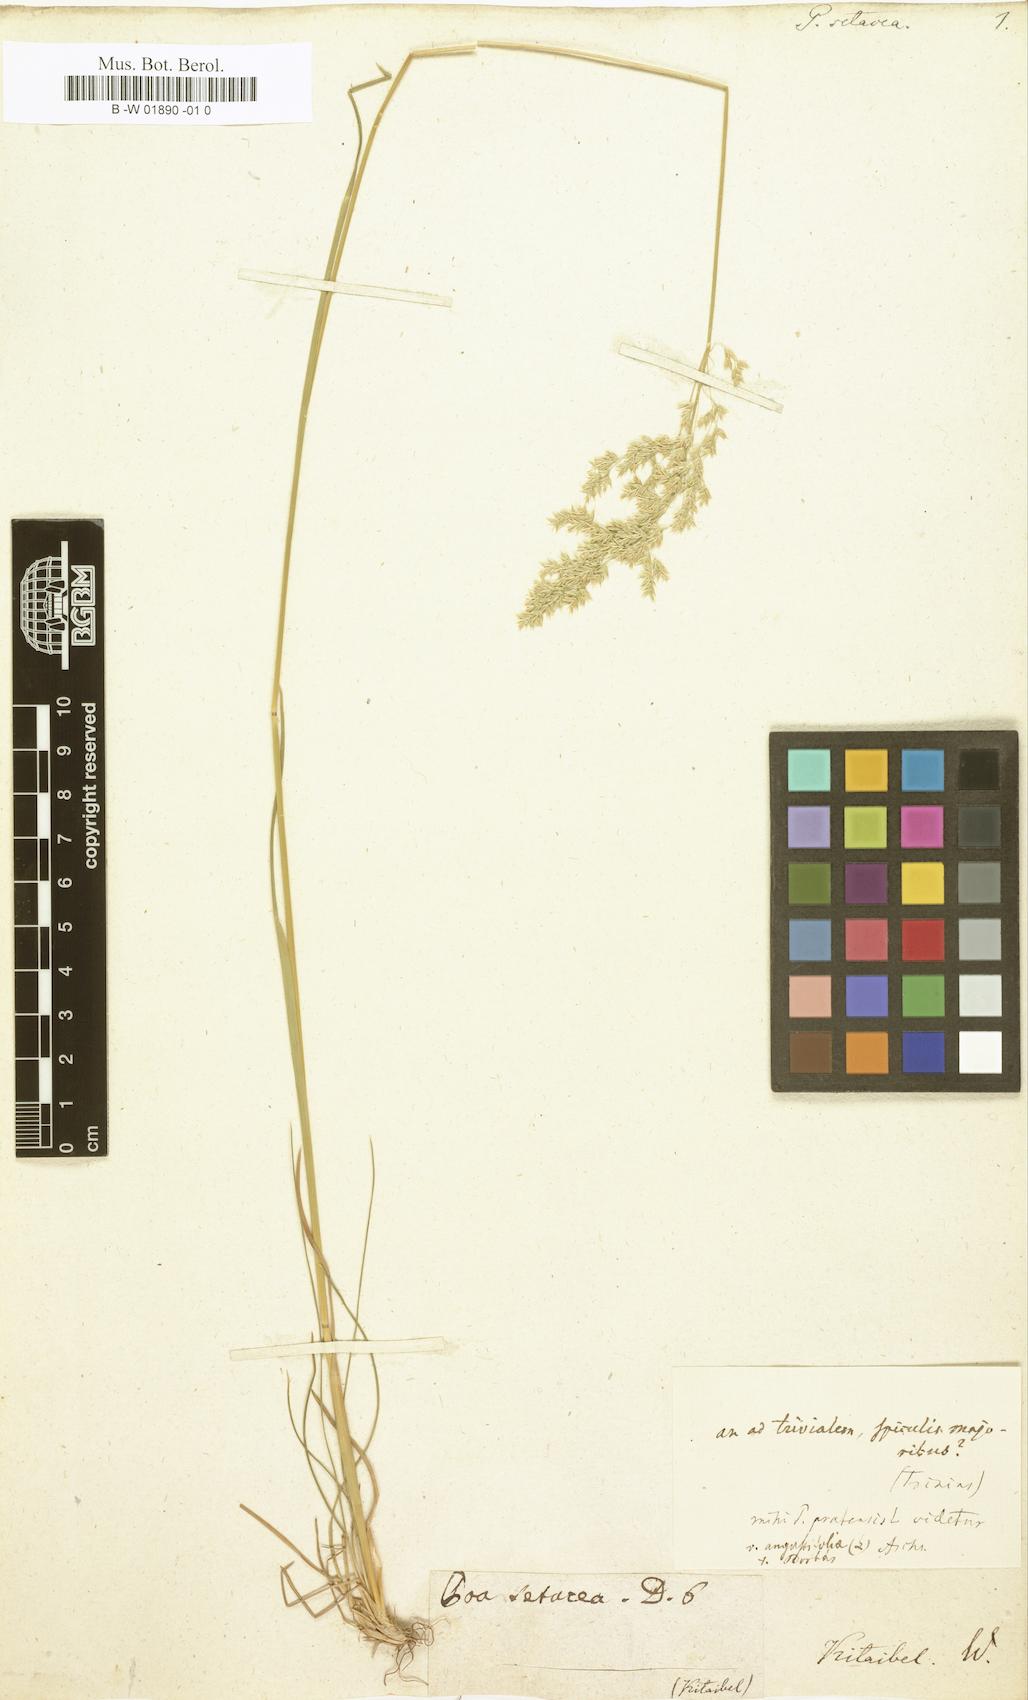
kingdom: Plantae
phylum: Tracheophyta
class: Liliopsida
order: Poales
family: Poaceae
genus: Poa
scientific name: Poa trivialis
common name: Rough bluegrass
